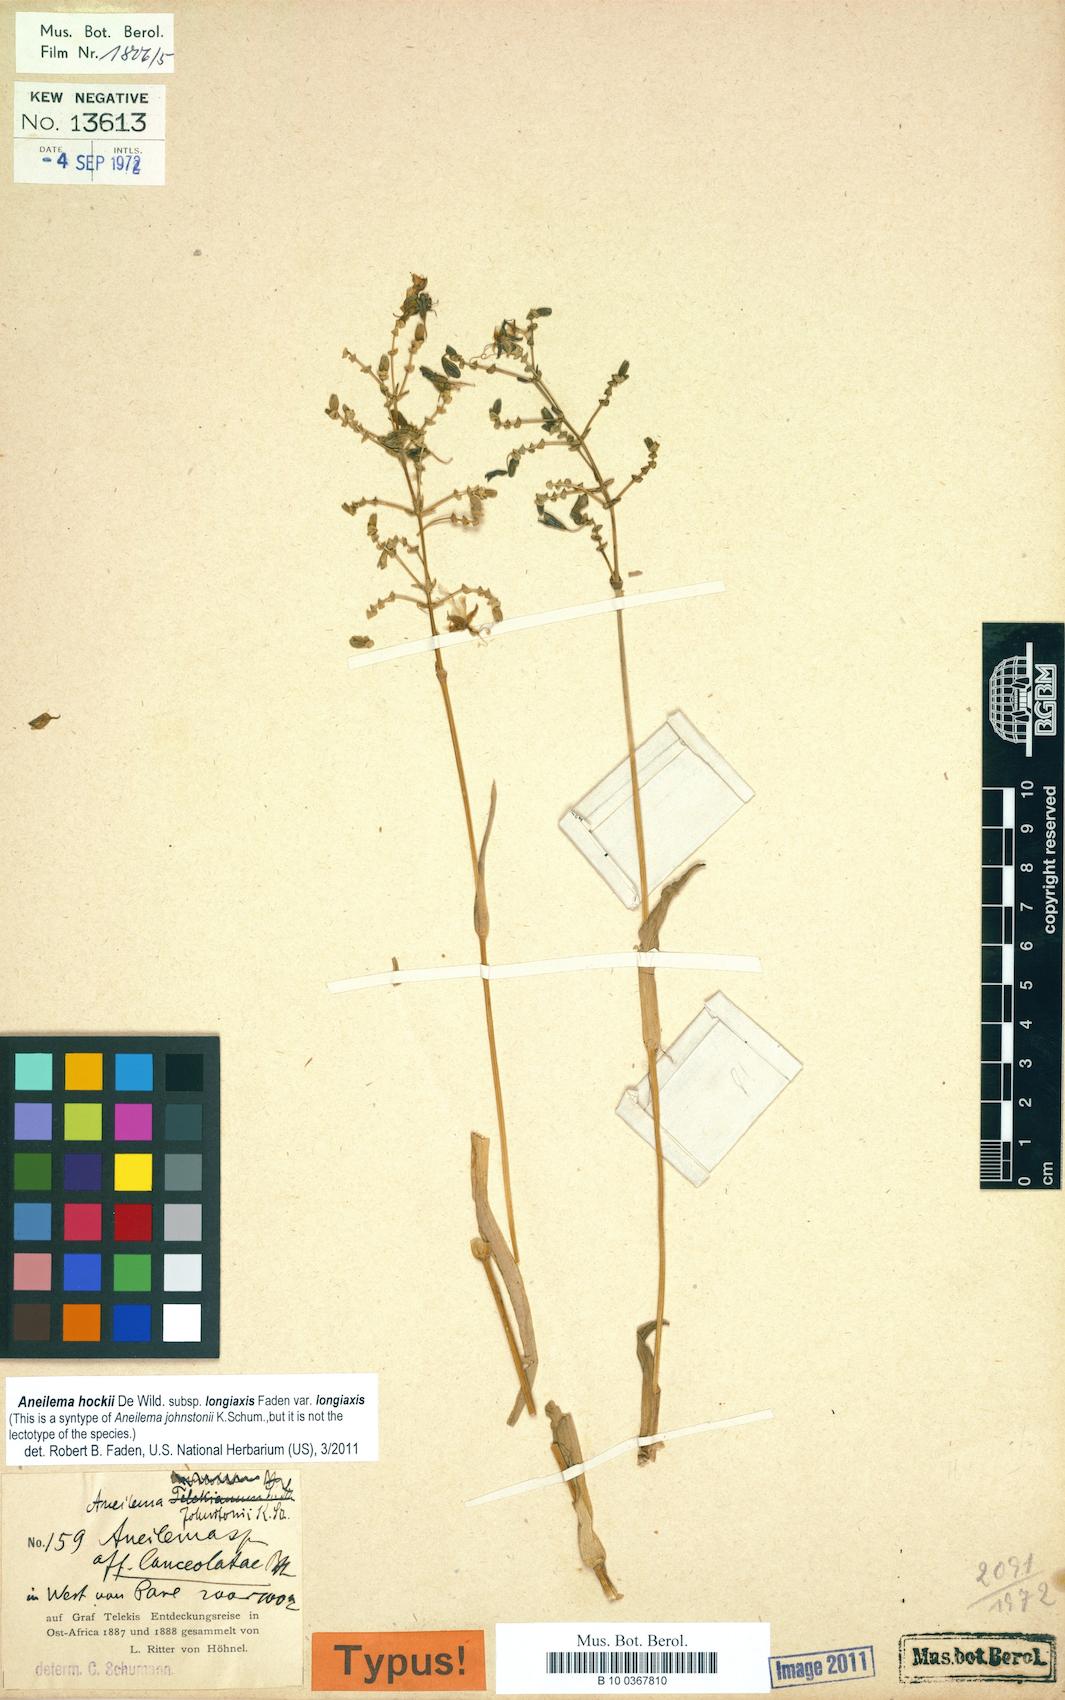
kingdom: Plantae
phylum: Tracheophyta
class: Liliopsida
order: Commelinales
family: Commelinaceae
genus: Aneilema
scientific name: Aneilema hockii
